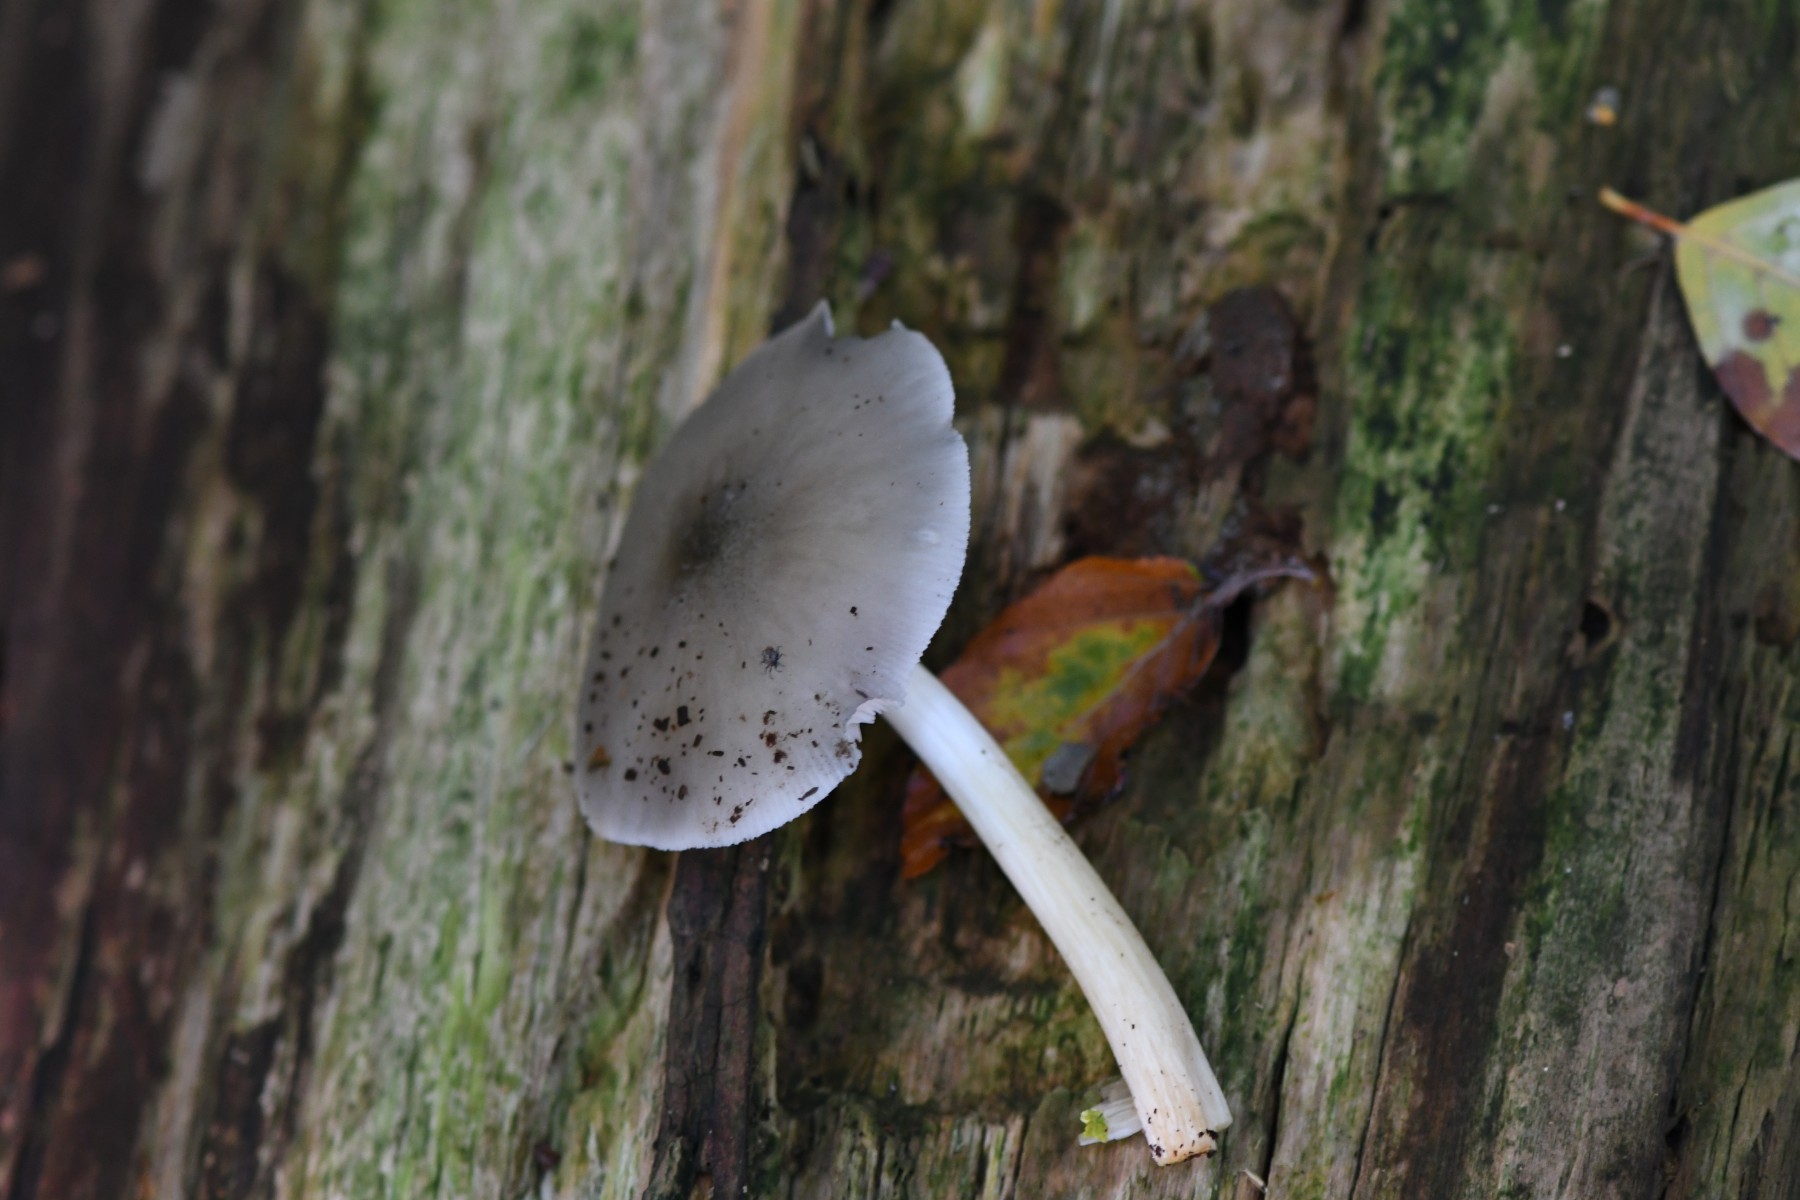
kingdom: Fungi
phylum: Basidiomycota
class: Agaricomycetes
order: Agaricales
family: Pluteaceae
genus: Pluteus
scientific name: Pluteus salicinus
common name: stiv skærmhat
